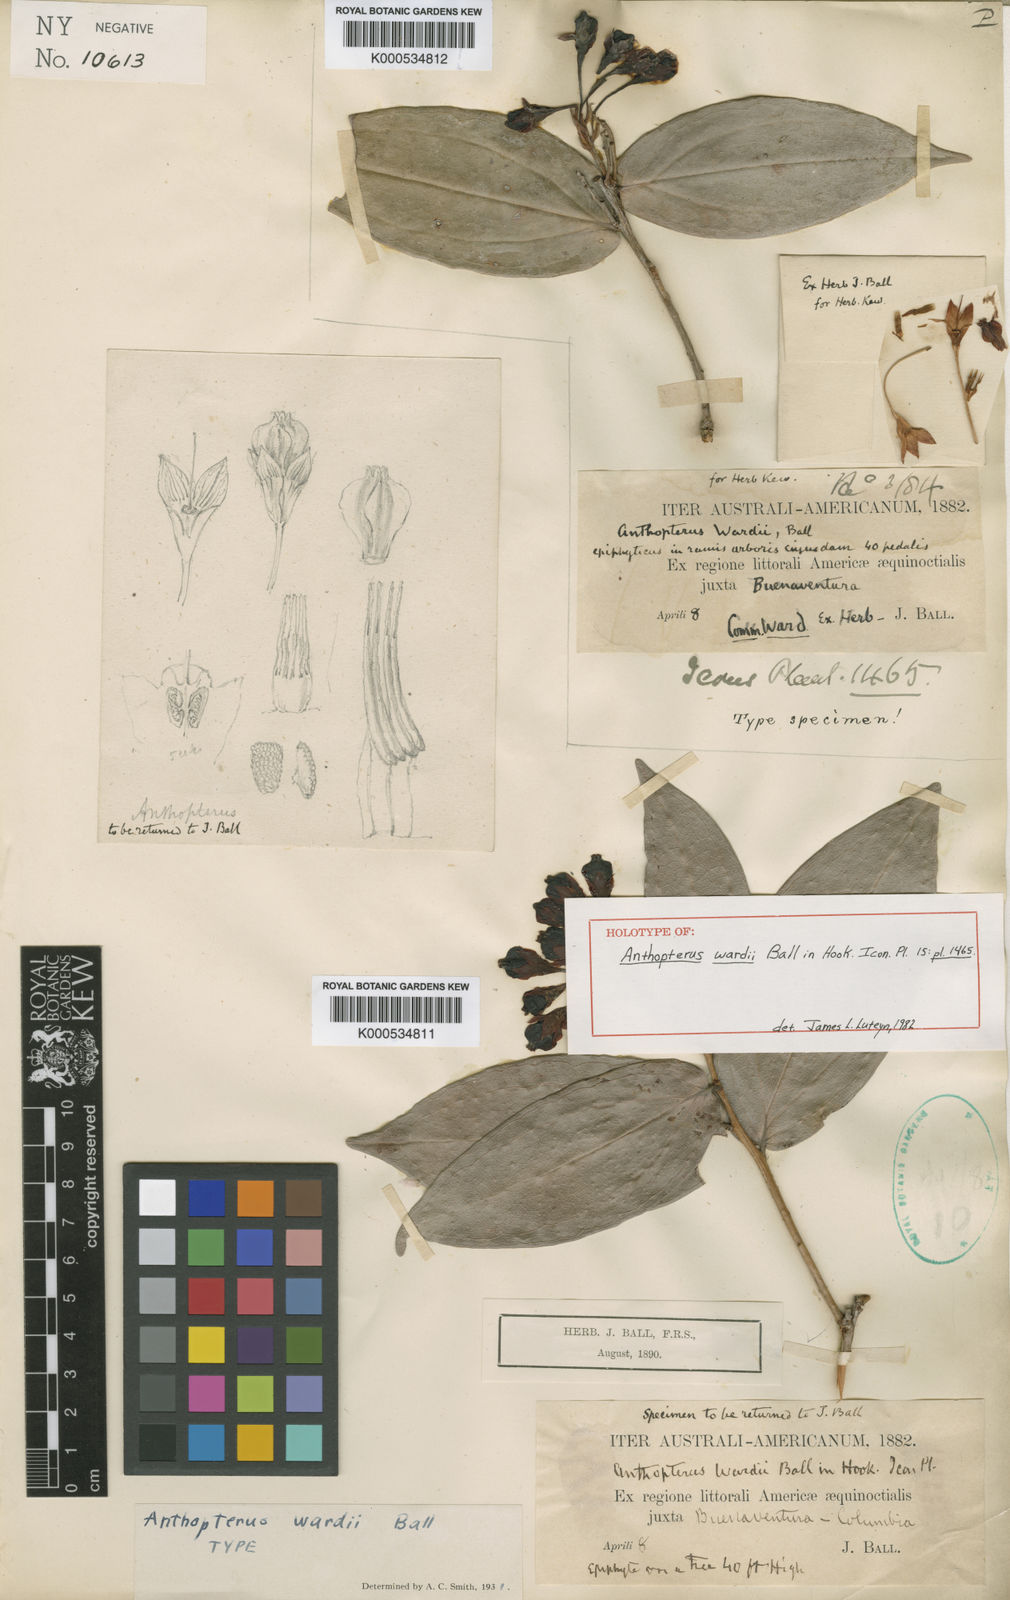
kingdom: Plantae
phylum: Tracheophyta
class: Magnoliopsida
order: Ericales
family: Ericaceae
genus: Anthopterus
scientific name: Anthopterus wardii
